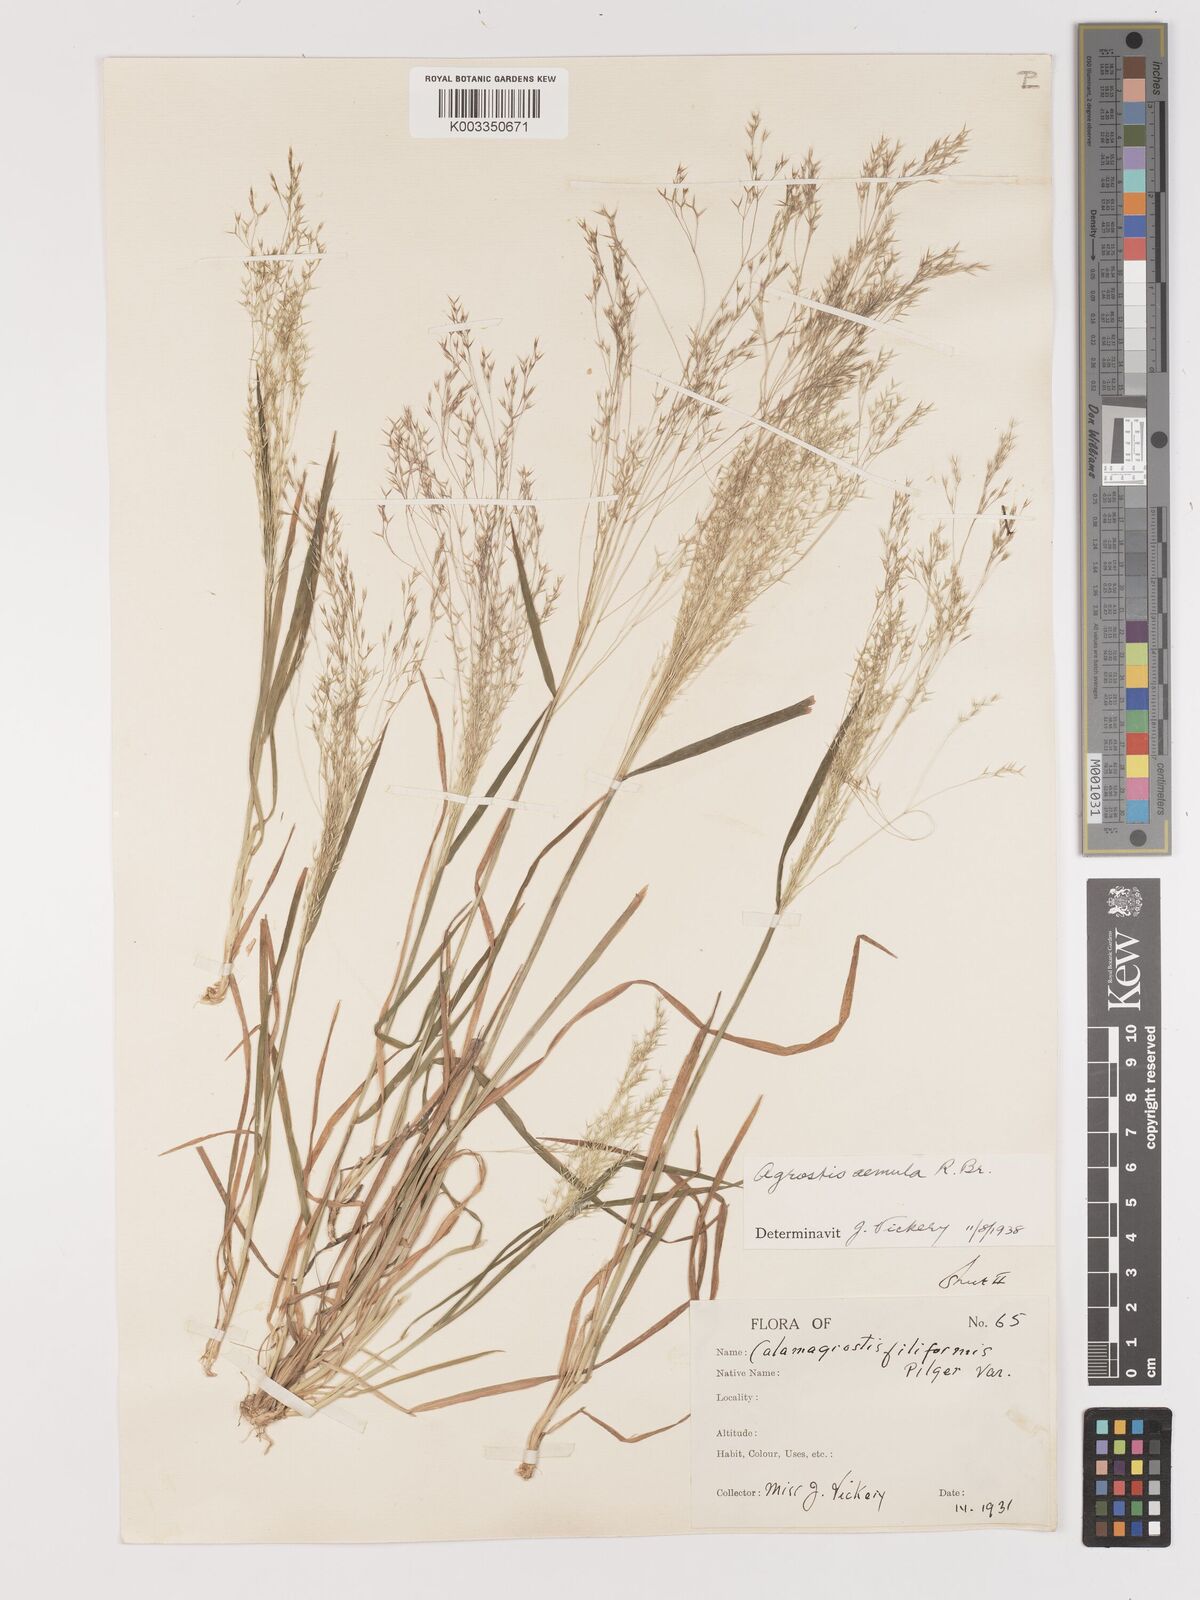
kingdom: Plantae
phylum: Tracheophyta
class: Liliopsida
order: Poales
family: Poaceae
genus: Lachnagrostis
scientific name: Lachnagrostis aemula
